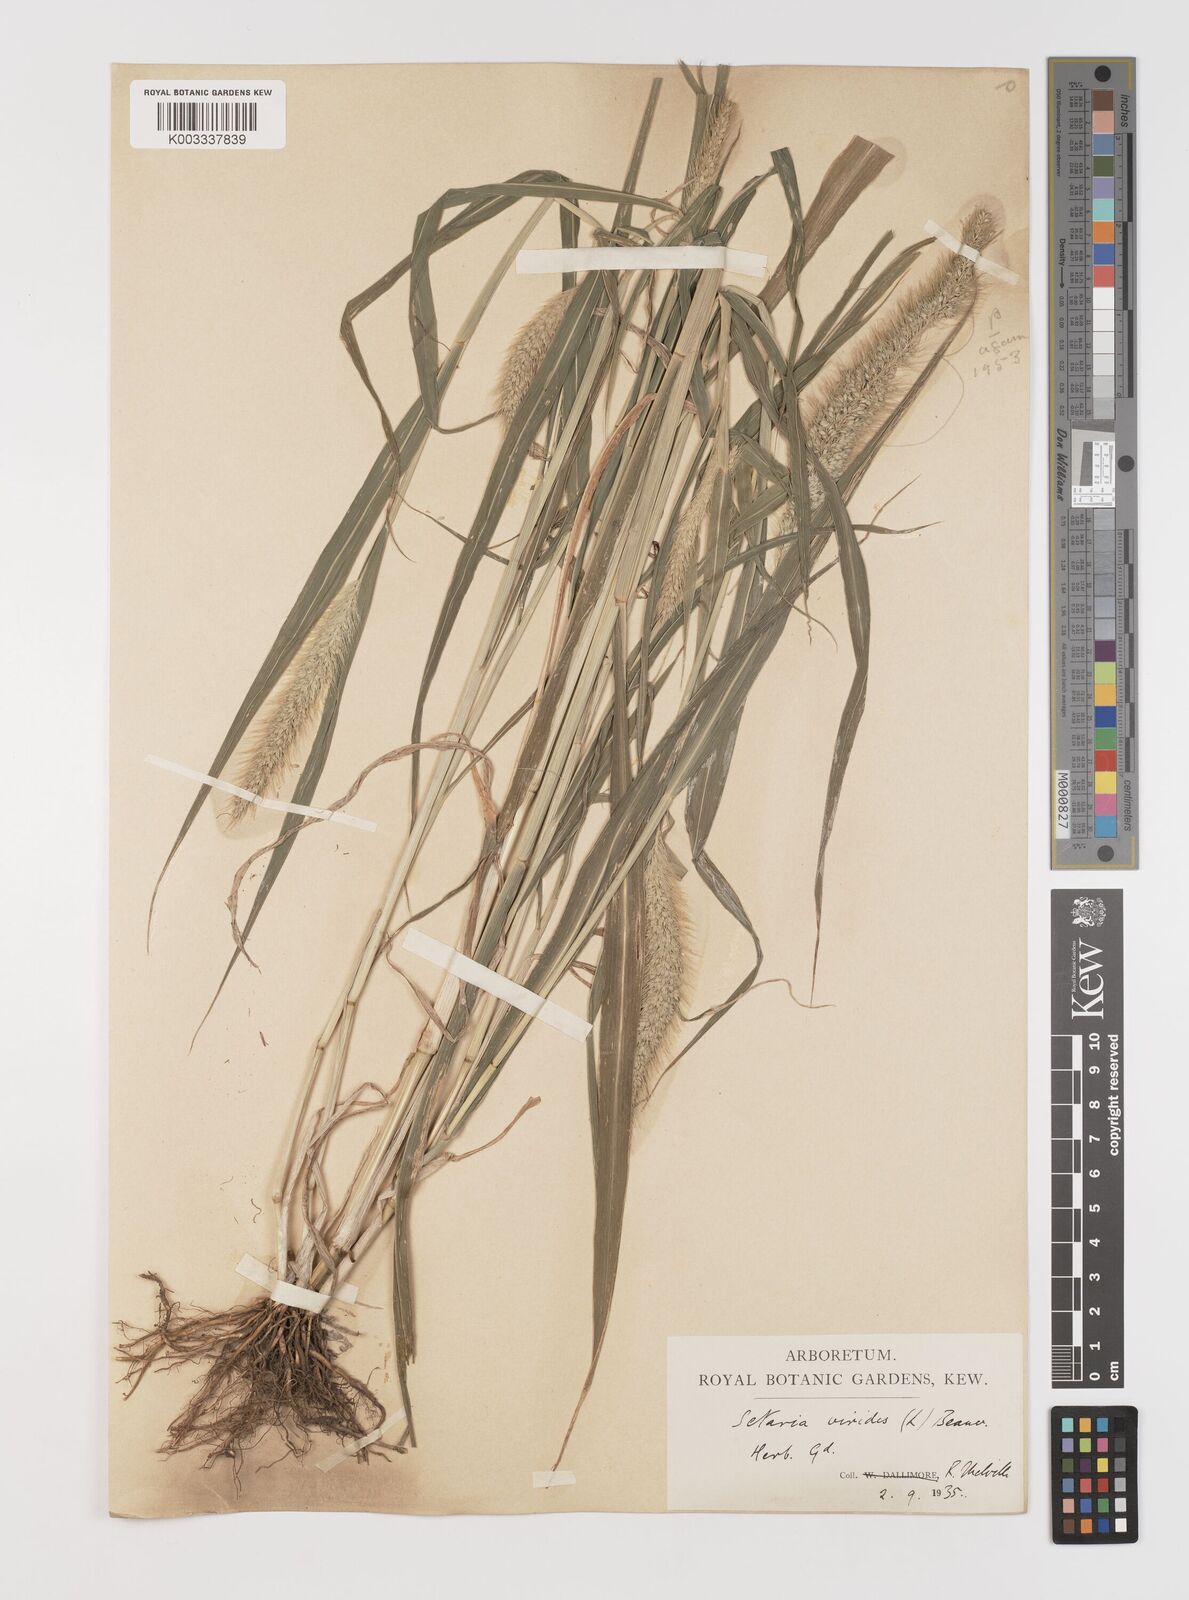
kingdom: Plantae
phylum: Tracheophyta
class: Liliopsida
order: Poales
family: Poaceae
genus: Setaria
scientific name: Setaria viridis
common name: Green bristlegrass
